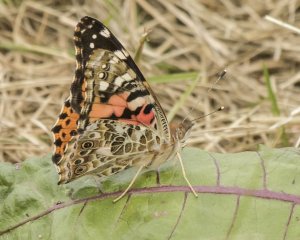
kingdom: Animalia
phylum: Arthropoda
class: Insecta
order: Lepidoptera
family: Nymphalidae
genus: Vanessa
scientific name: Vanessa cardui
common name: Painted Lady
